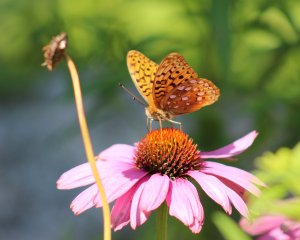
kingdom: Animalia
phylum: Arthropoda
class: Insecta
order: Lepidoptera
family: Nymphalidae
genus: Speyeria
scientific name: Speyeria aphrodite
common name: Aphrodite Fritillary
